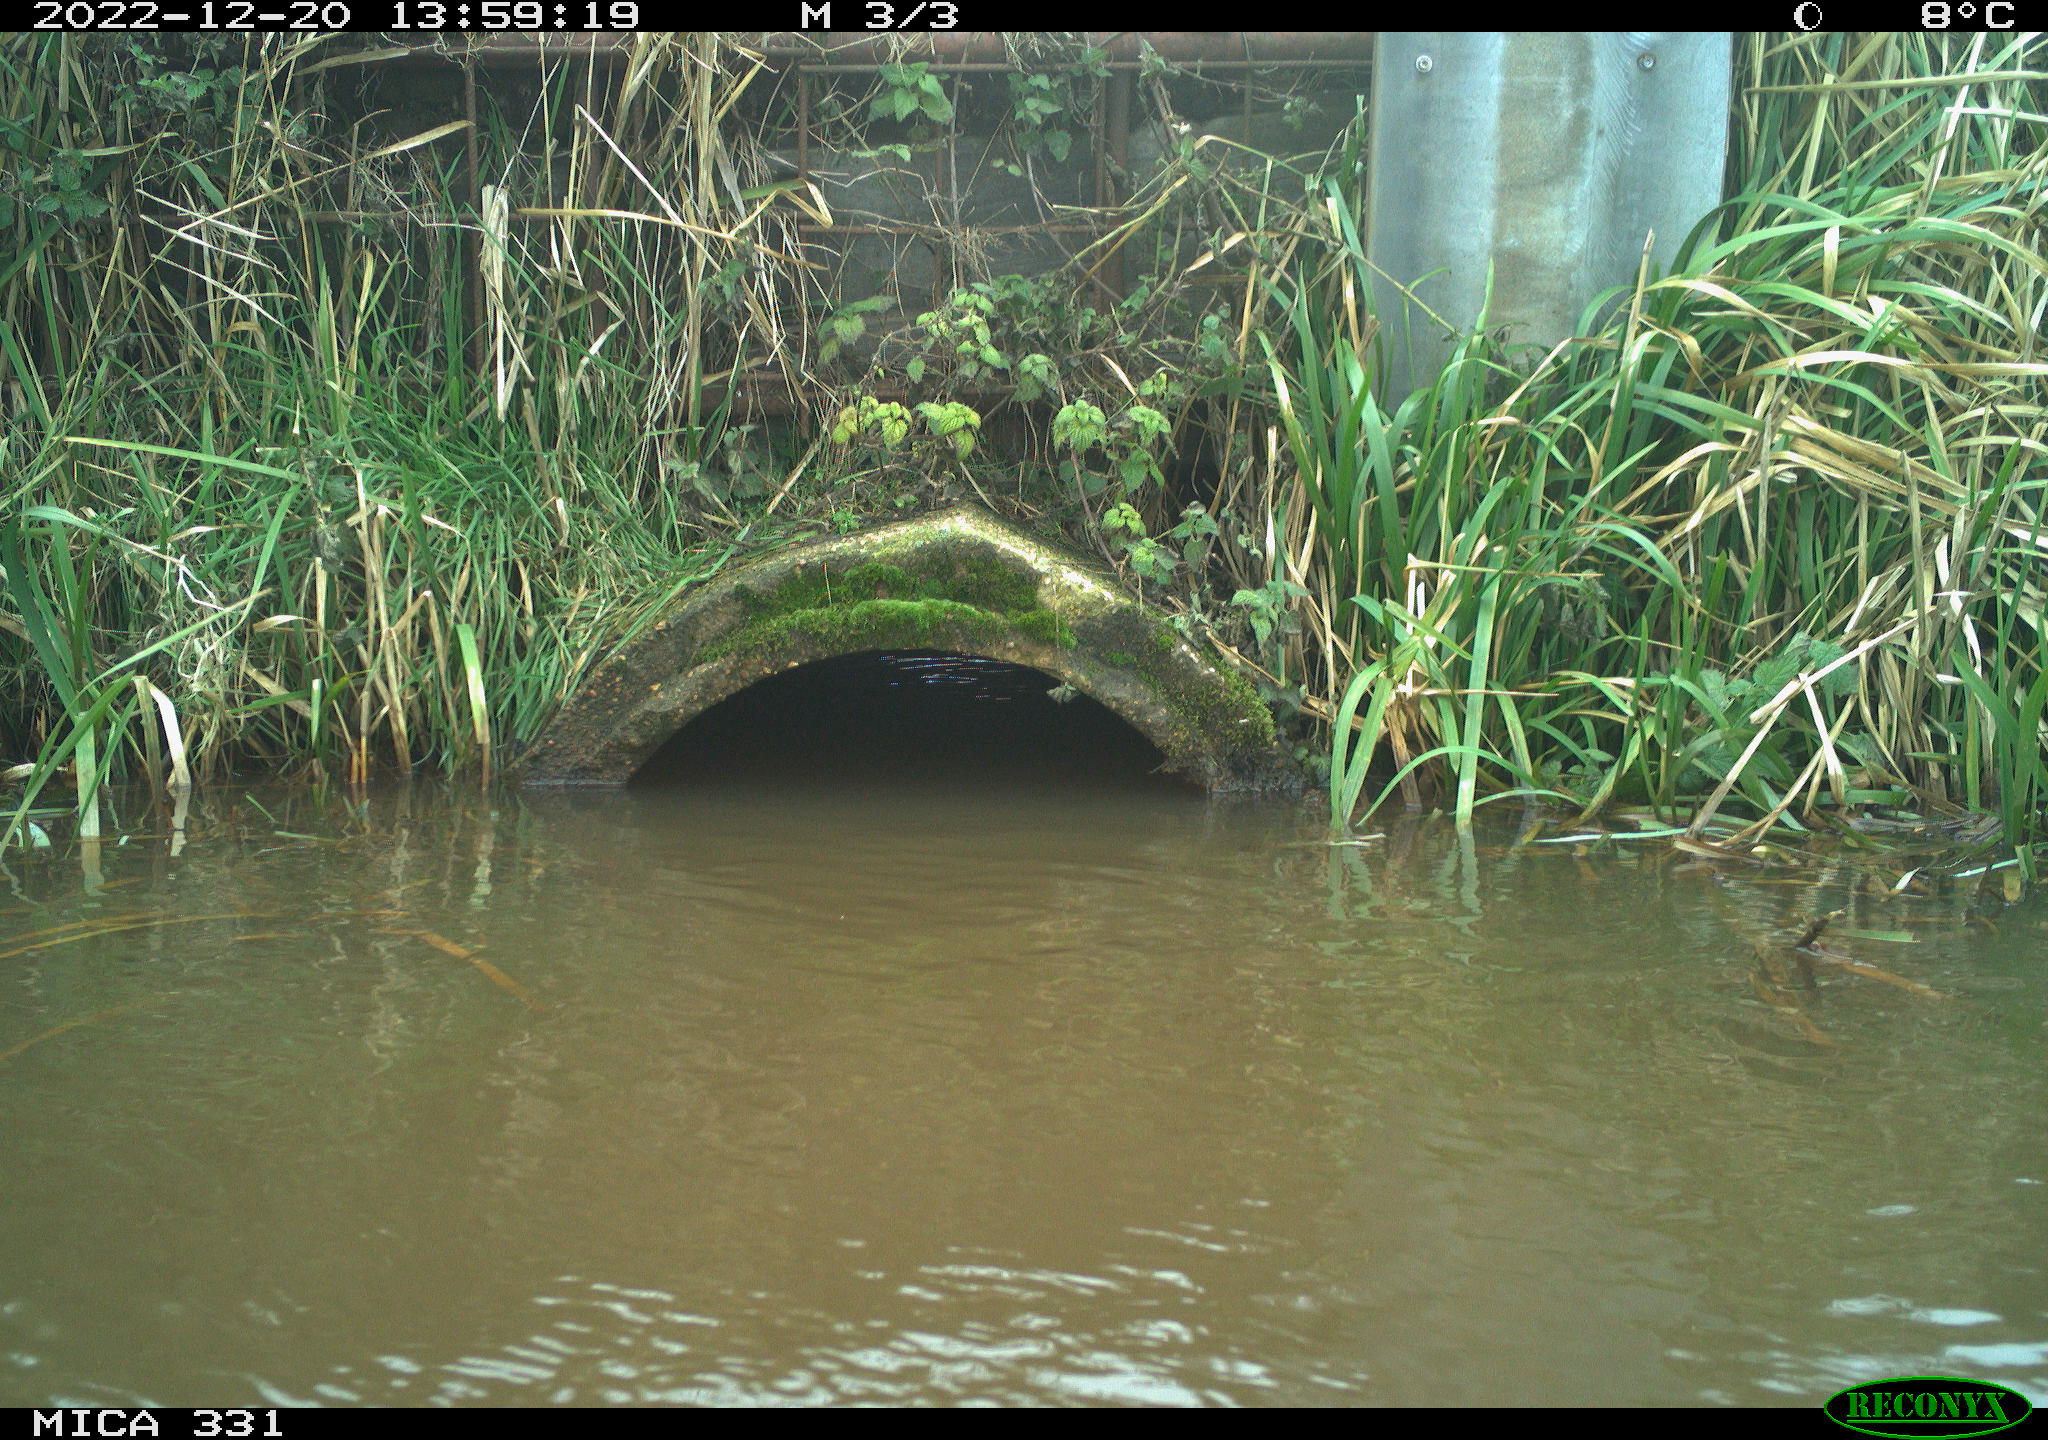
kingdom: Animalia
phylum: Chordata
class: Aves
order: Gruiformes
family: Rallidae
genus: Gallinula
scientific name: Gallinula chloropus
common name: Common moorhen
